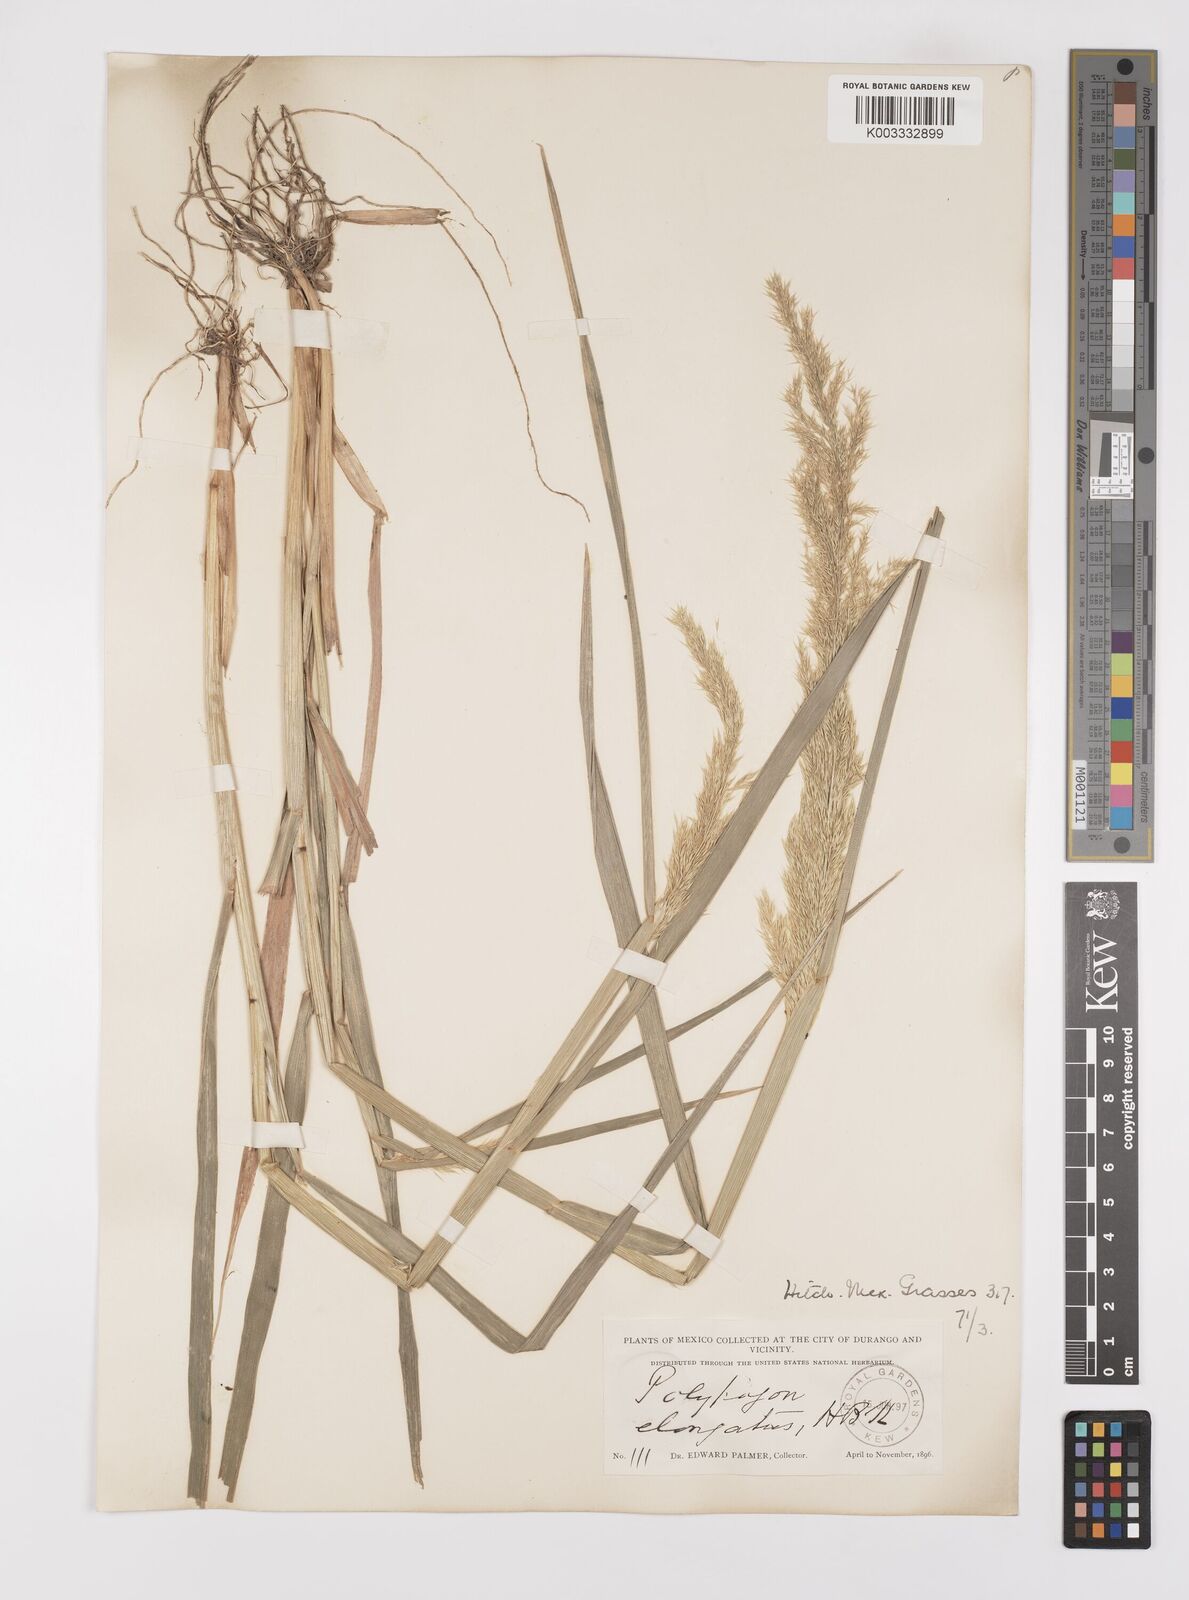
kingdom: Plantae
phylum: Tracheophyta
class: Liliopsida
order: Poales
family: Poaceae
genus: Polypogon
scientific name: Polypogon elongatus
